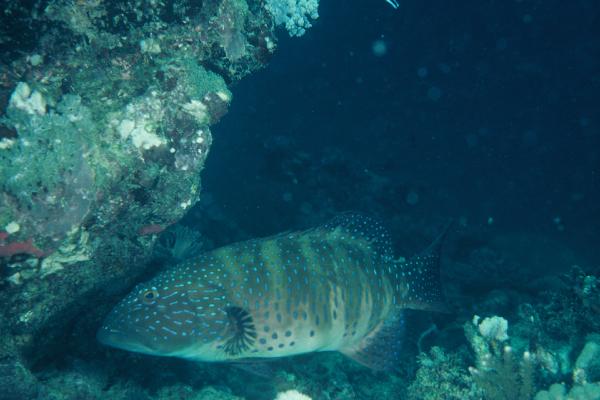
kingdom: Animalia
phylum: Chordata
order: Perciformes
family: Serranidae
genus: Plectropomus
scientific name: Plectropomus pessuliferus
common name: Roving coralgrouper
